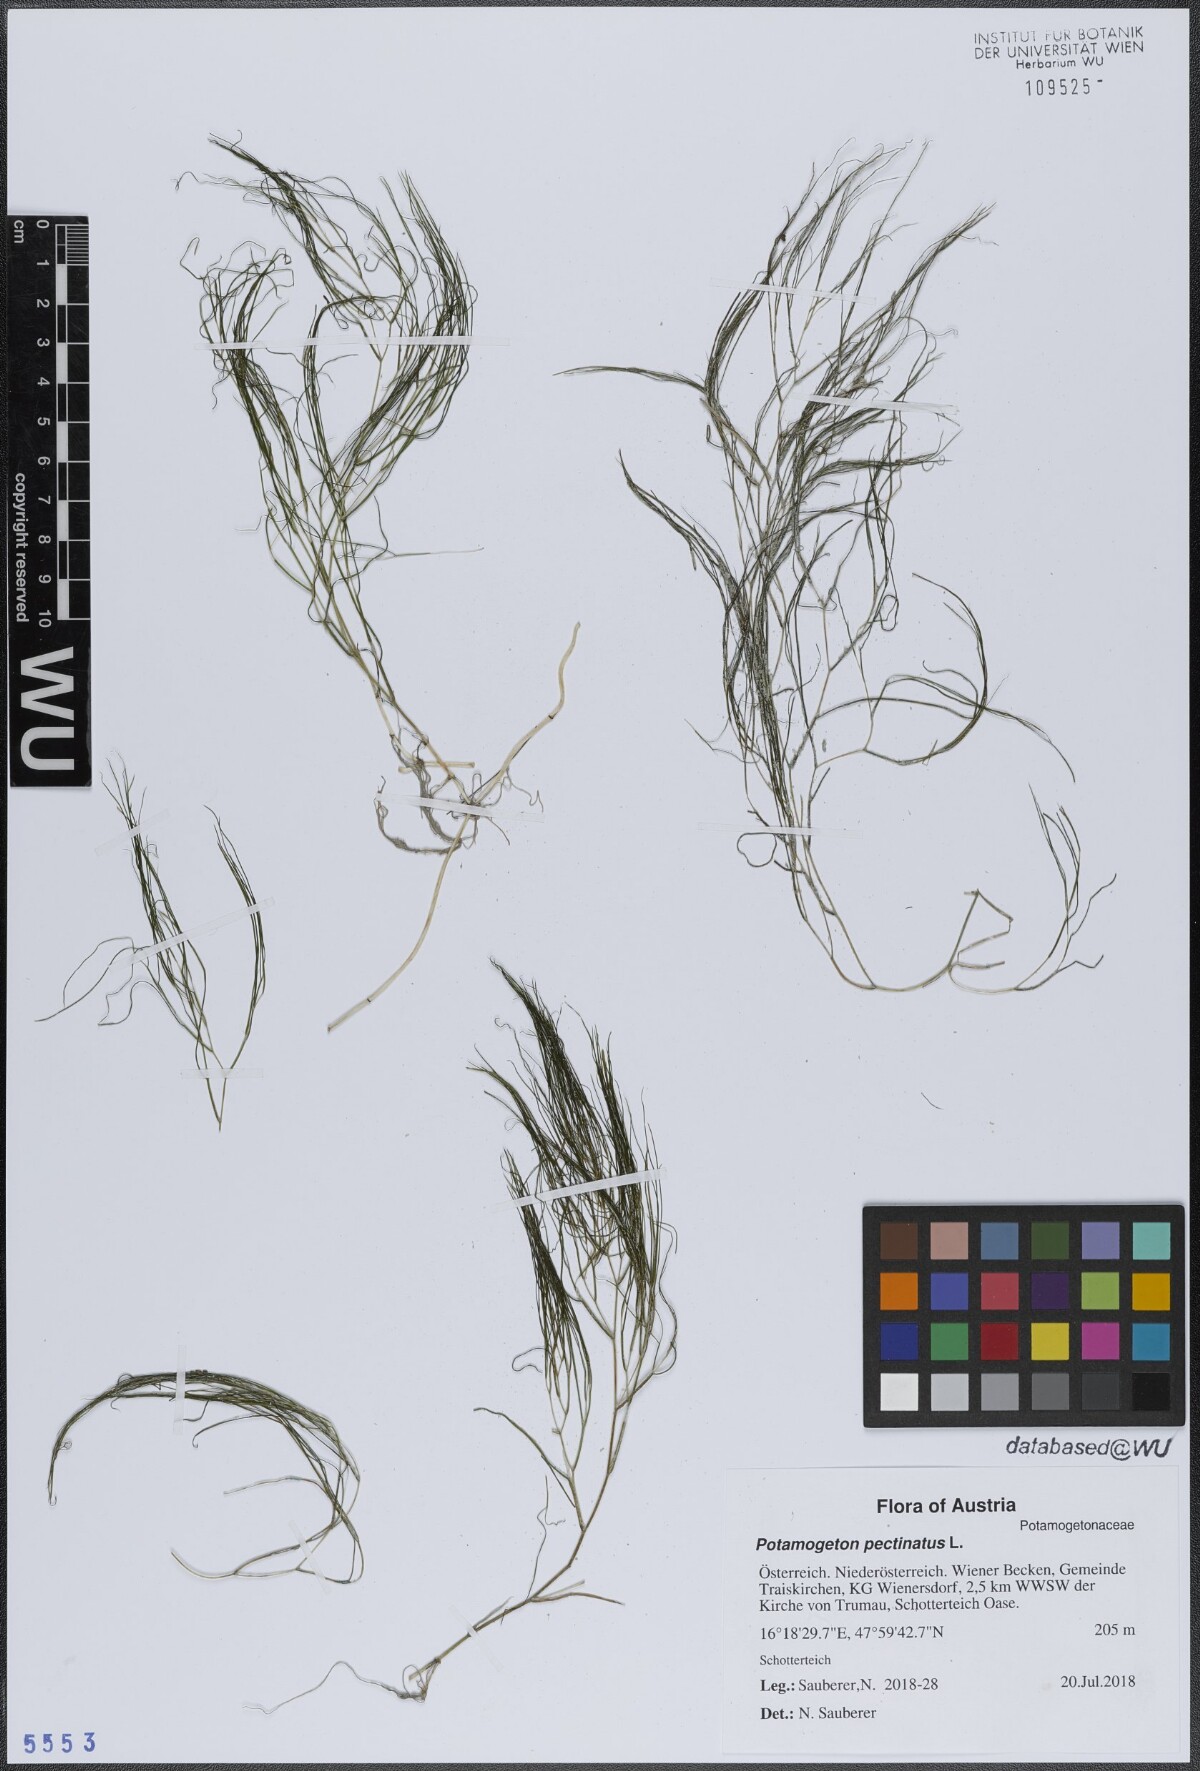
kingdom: Plantae
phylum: Tracheophyta
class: Liliopsida
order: Alismatales
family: Potamogetonaceae
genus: Stuckenia
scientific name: Stuckenia pectinata
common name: Sago pondweed
